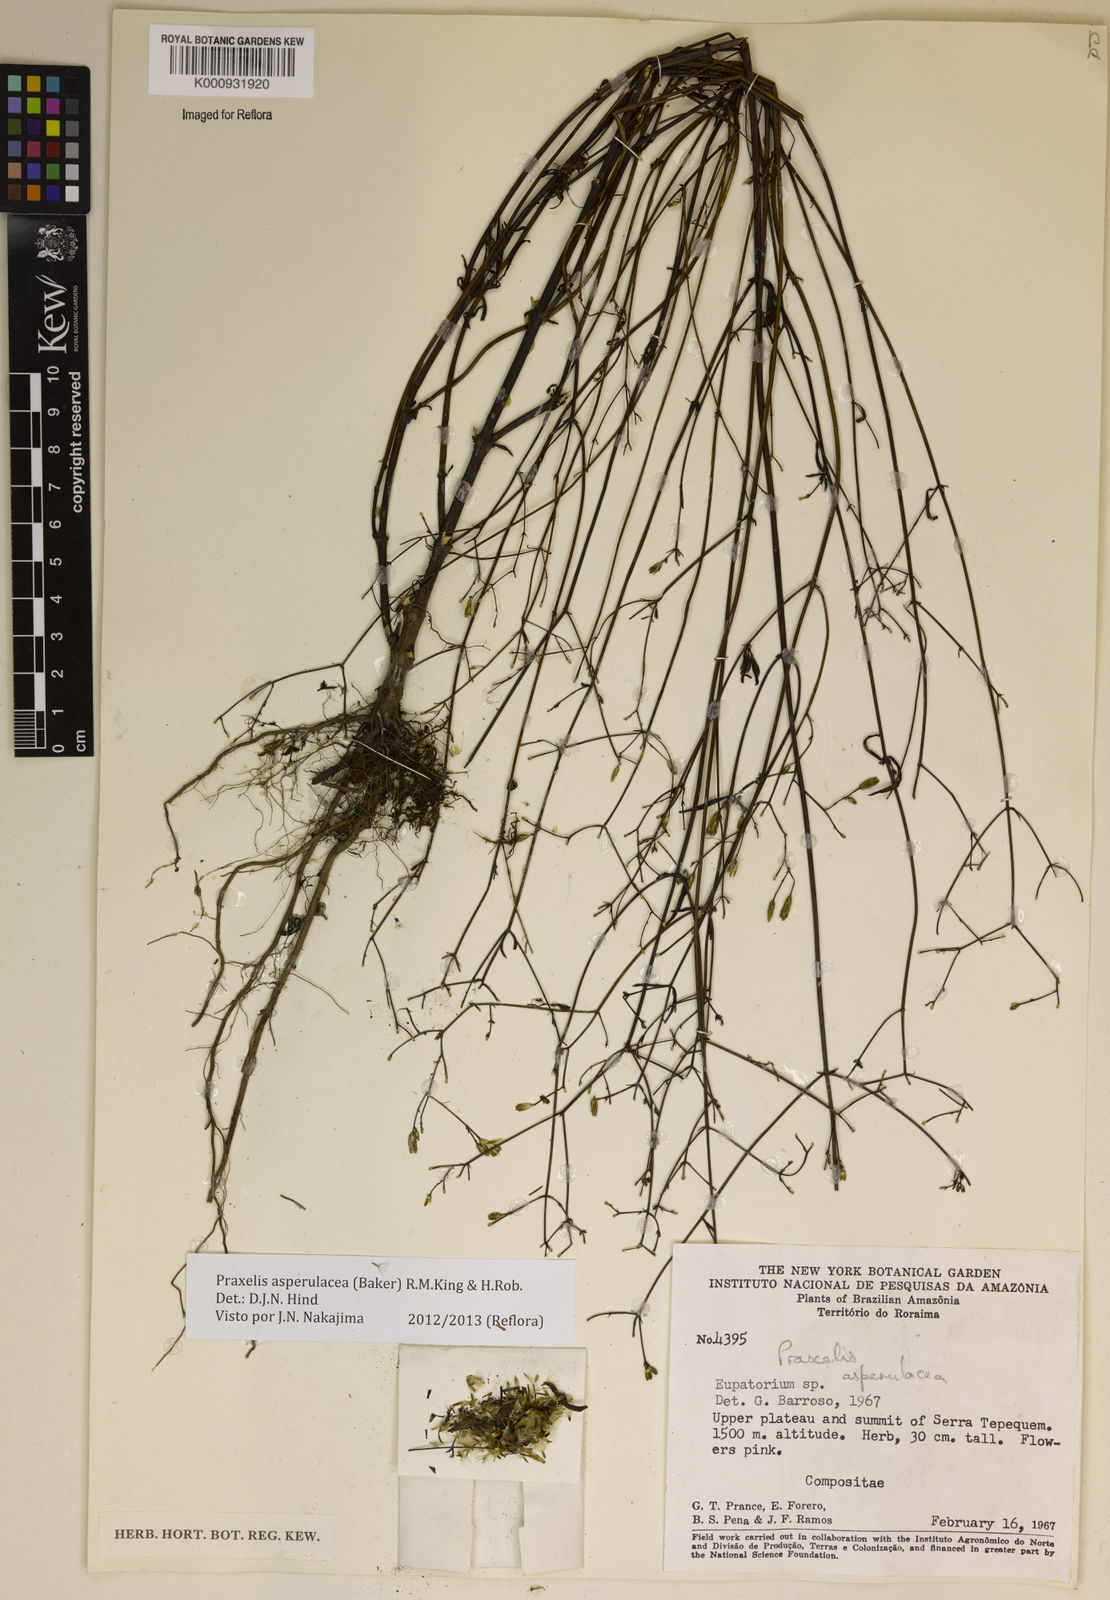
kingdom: Plantae
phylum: Tracheophyta
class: Magnoliopsida
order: Asterales
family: Asteraceae
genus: Praxelis
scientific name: Praxelis asperulacea
